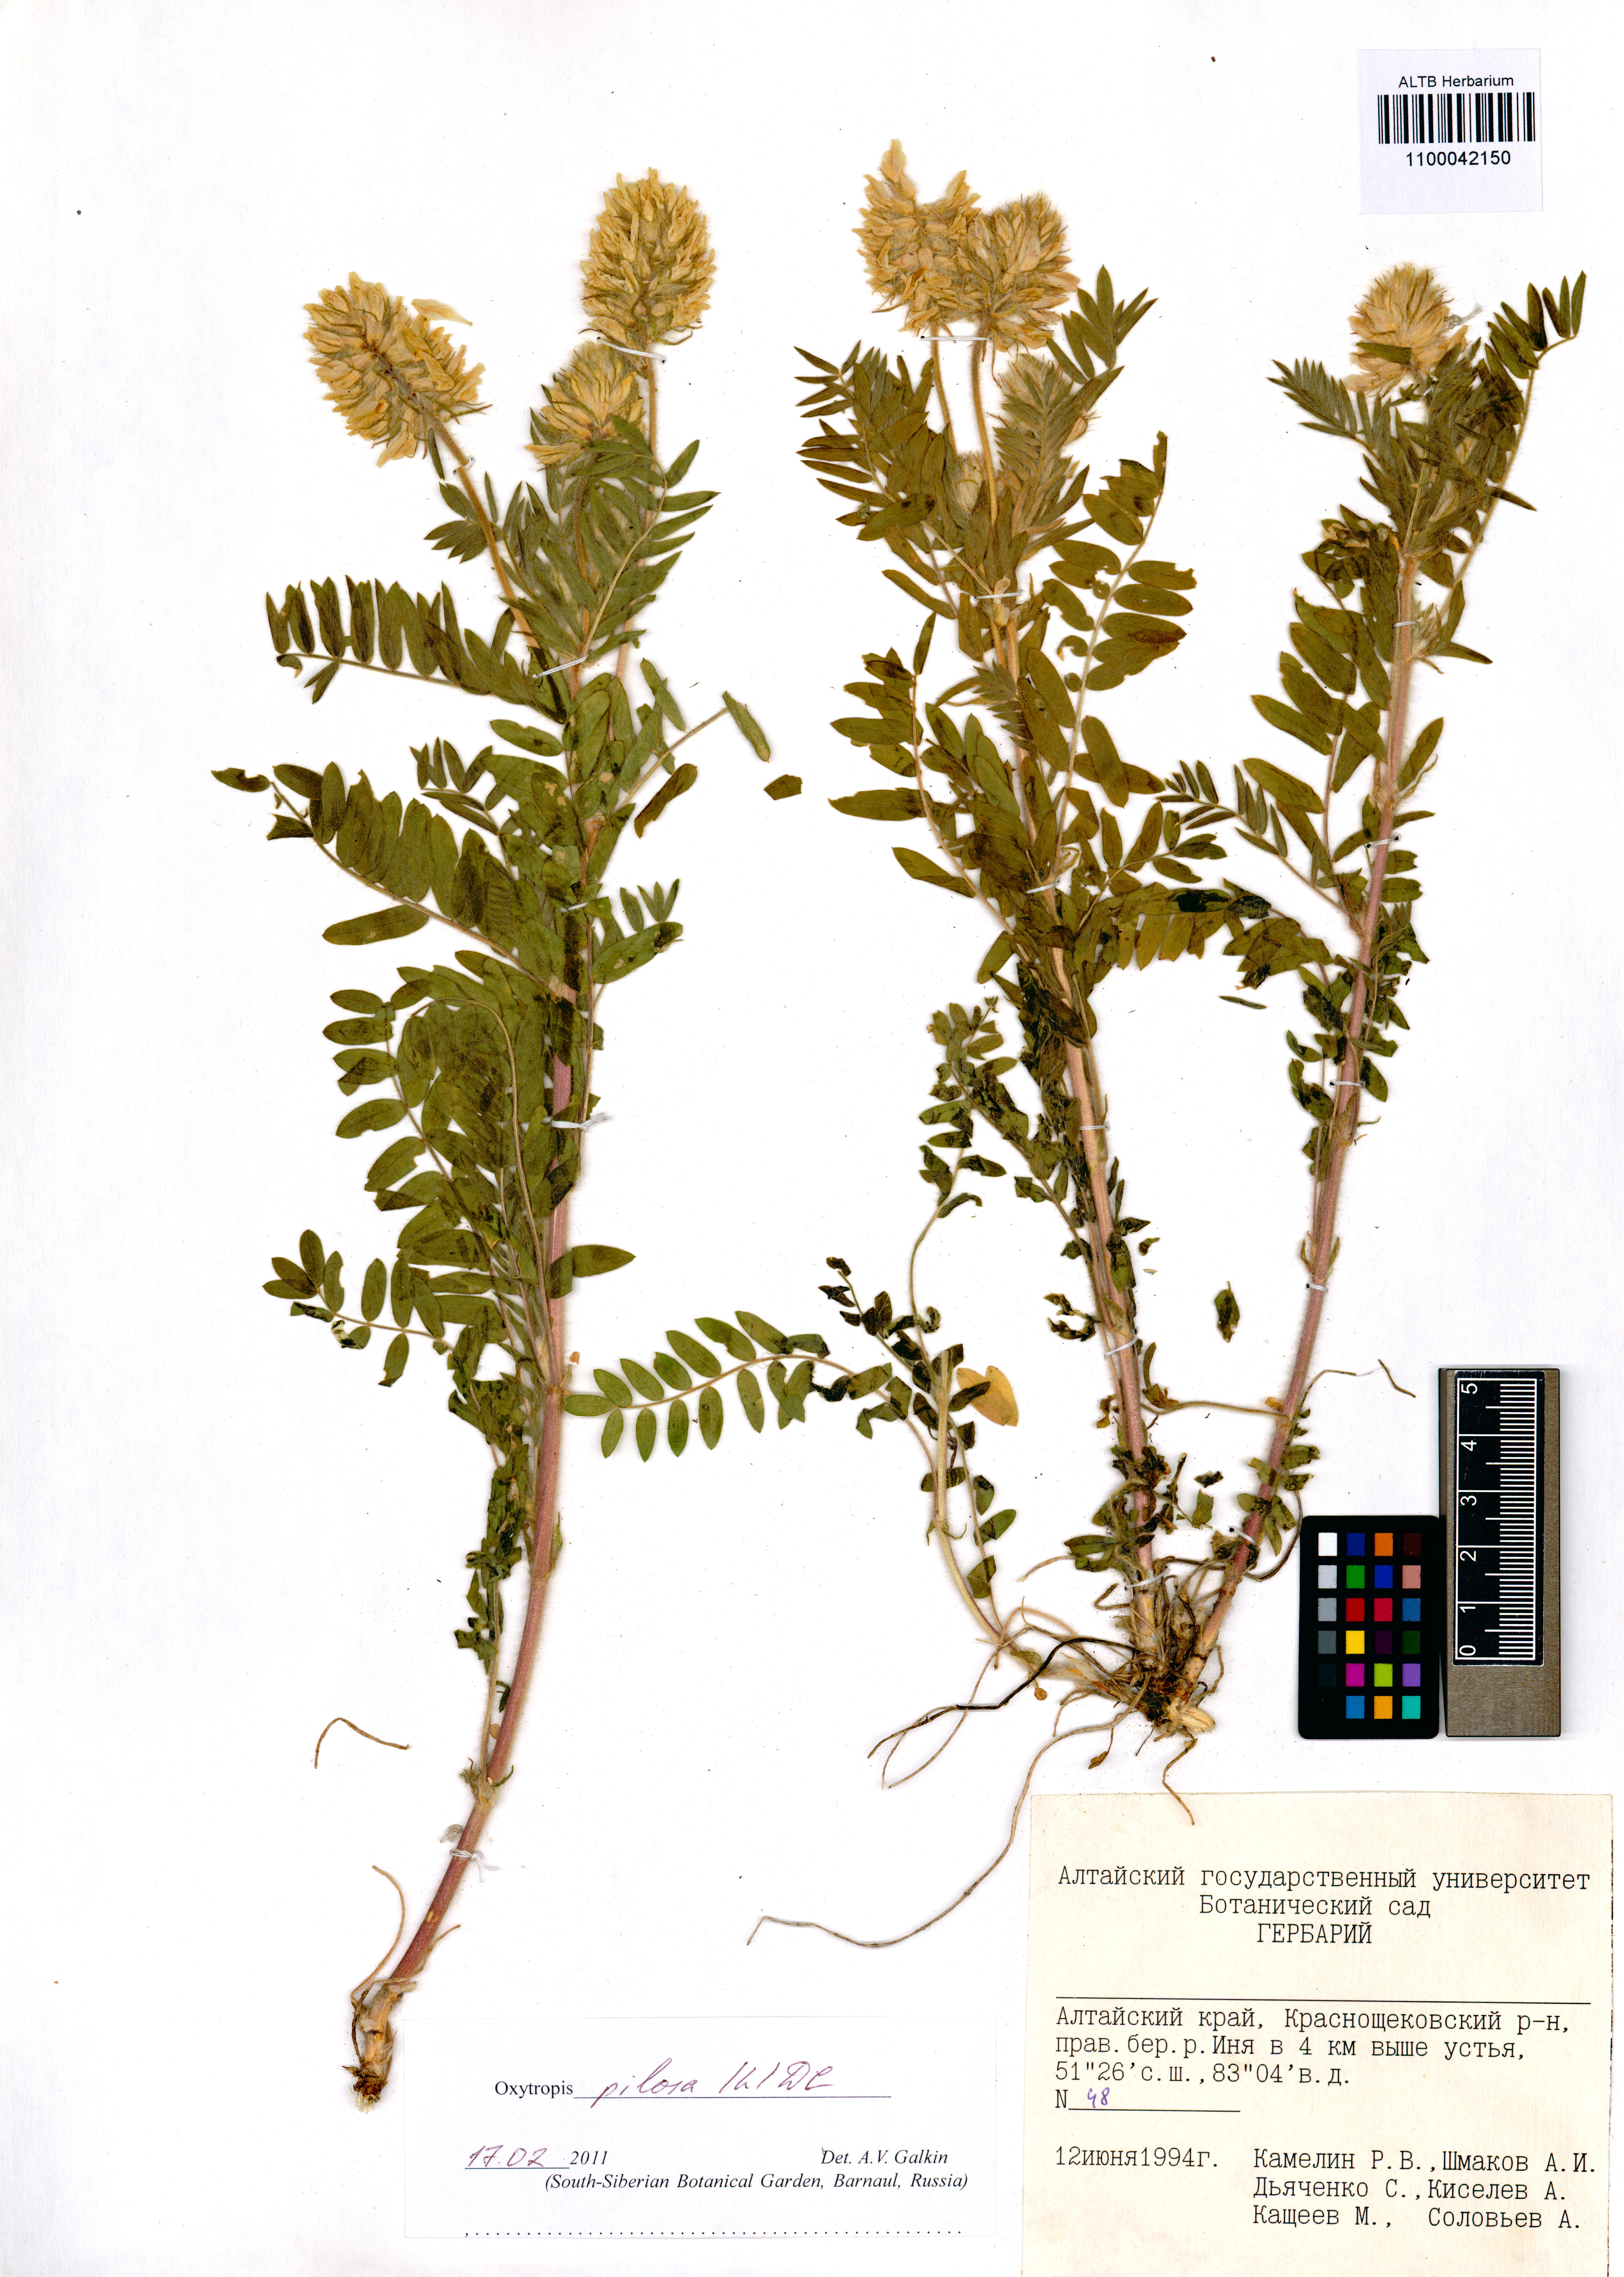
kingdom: Plantae
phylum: Tracheophyta
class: Magnoliopsida
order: Fabales
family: Fabaceae
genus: Oxytropis
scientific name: Oxytropis pilosa
